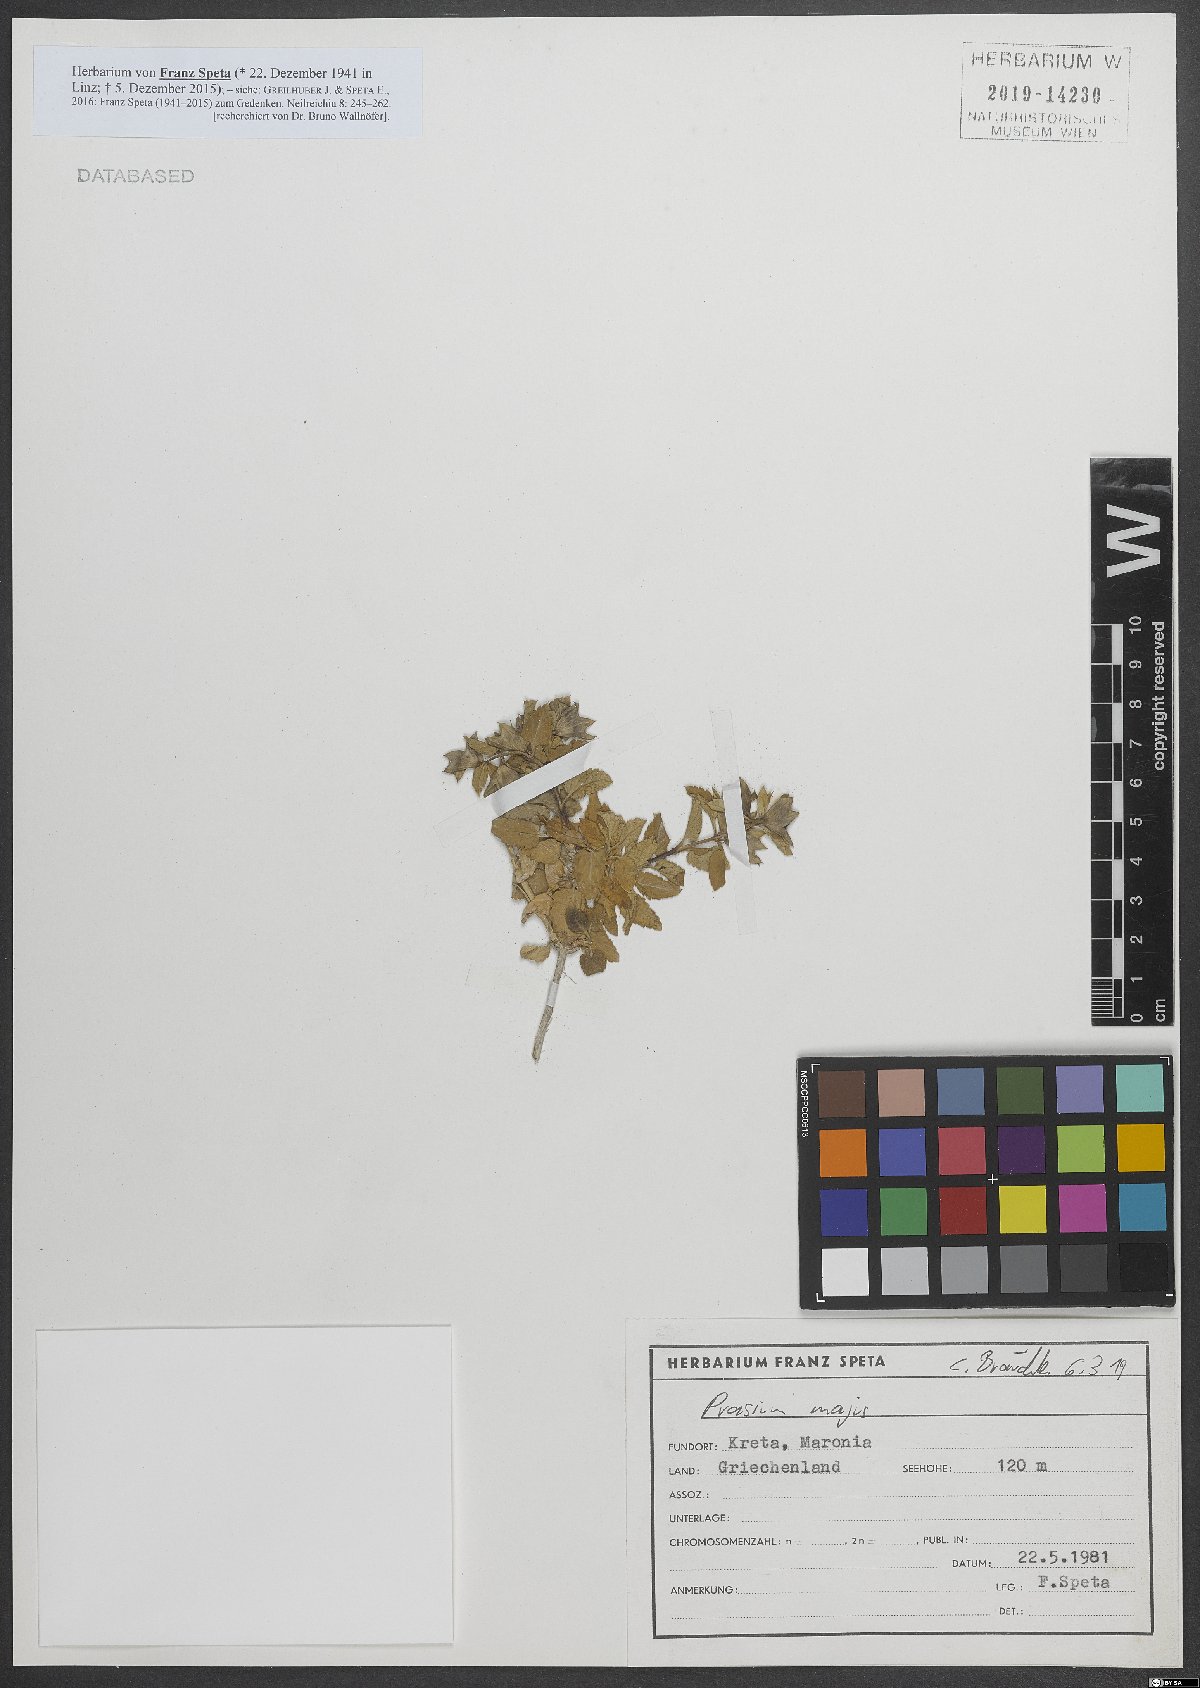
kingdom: Plantae
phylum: Tracheophyta
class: Magnoliopsida
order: Lamiales
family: Lamiaceae
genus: Prasium
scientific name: Prasium majus
